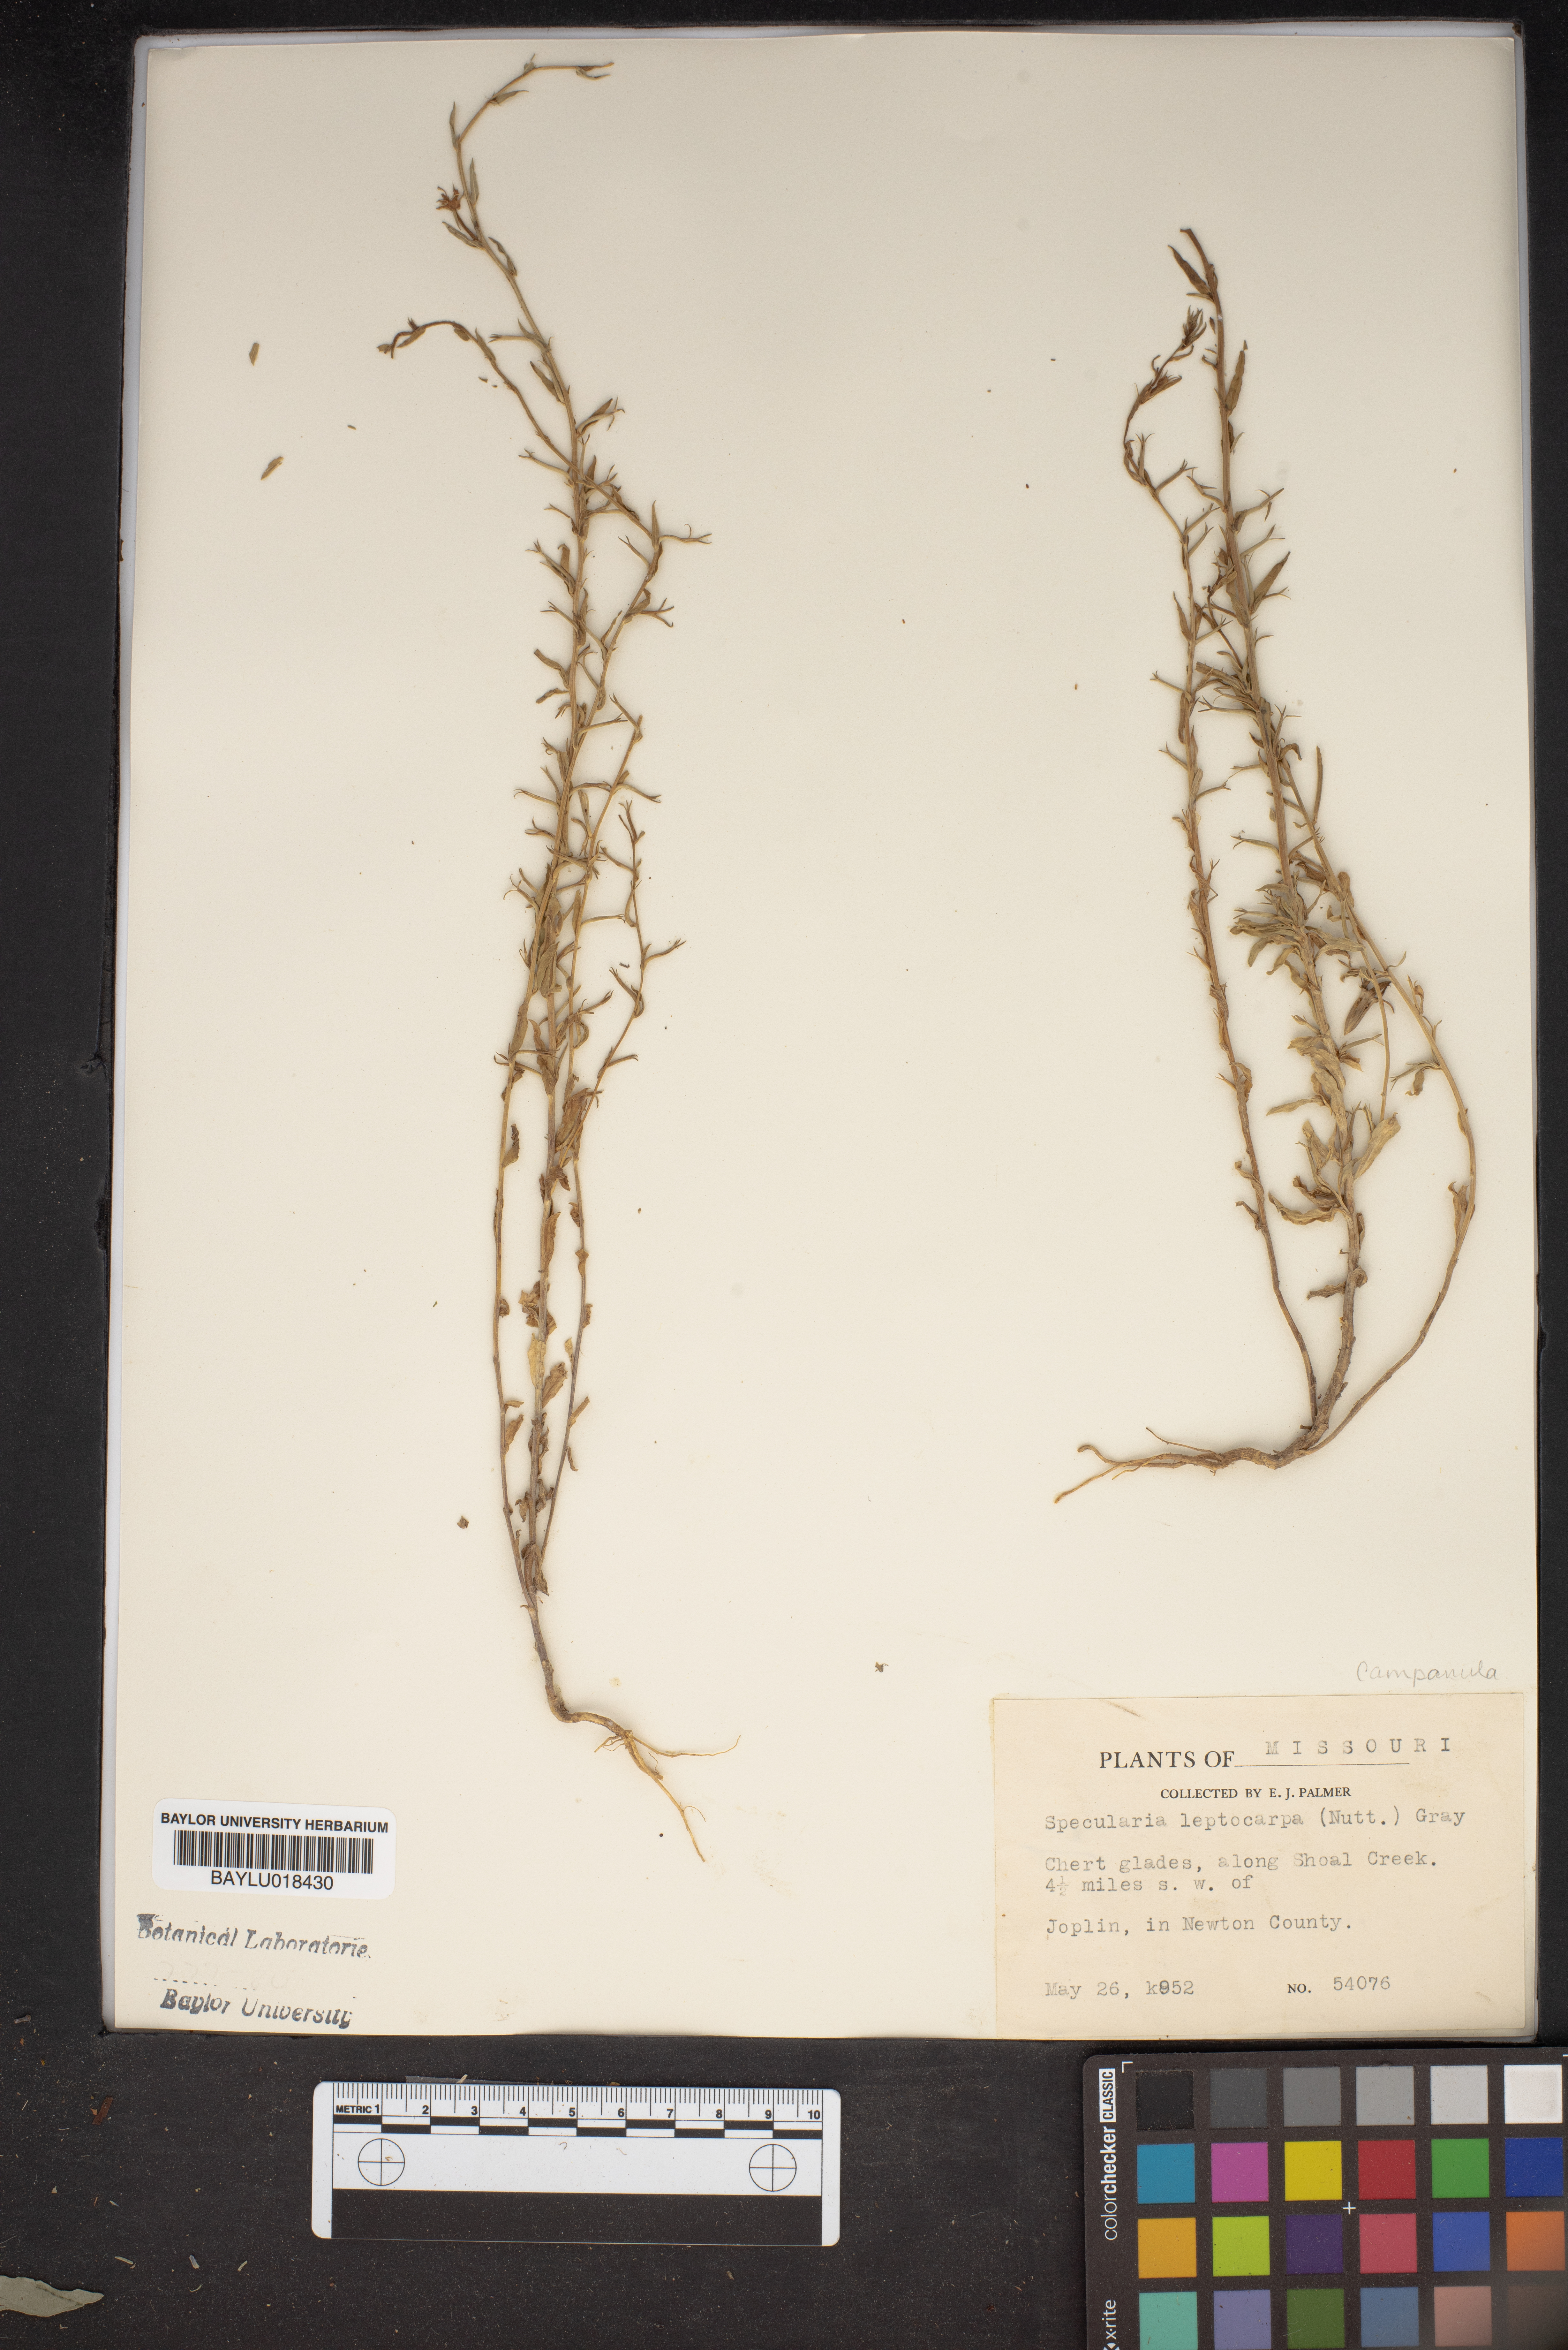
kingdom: Plantae
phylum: Tracheophyta
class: Magnoliopsida
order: Asterales
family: Campanulaceae
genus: Triodanis
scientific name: Triodanis leptocarpa
